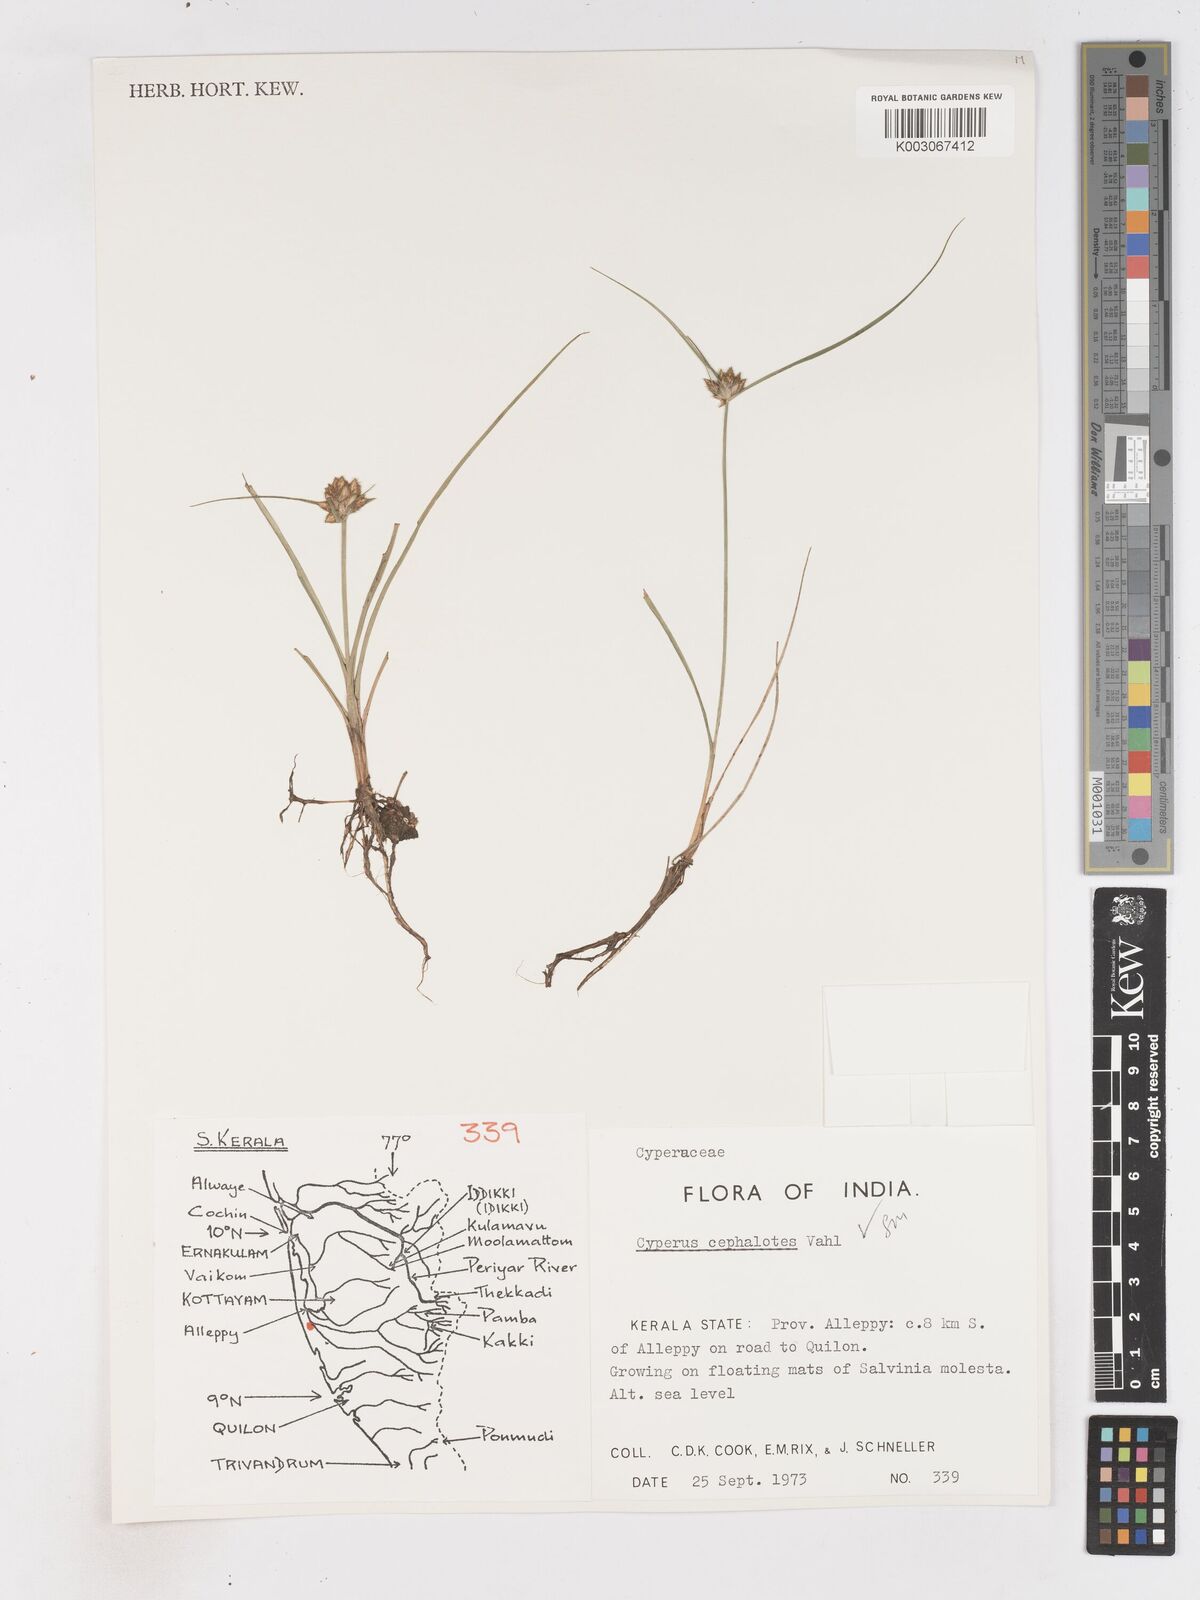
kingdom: Plantae
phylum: Tracheophyta
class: Liliopsida
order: Poales
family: Cyperaceae
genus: Cyperus
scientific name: Cyperus cephalotes
